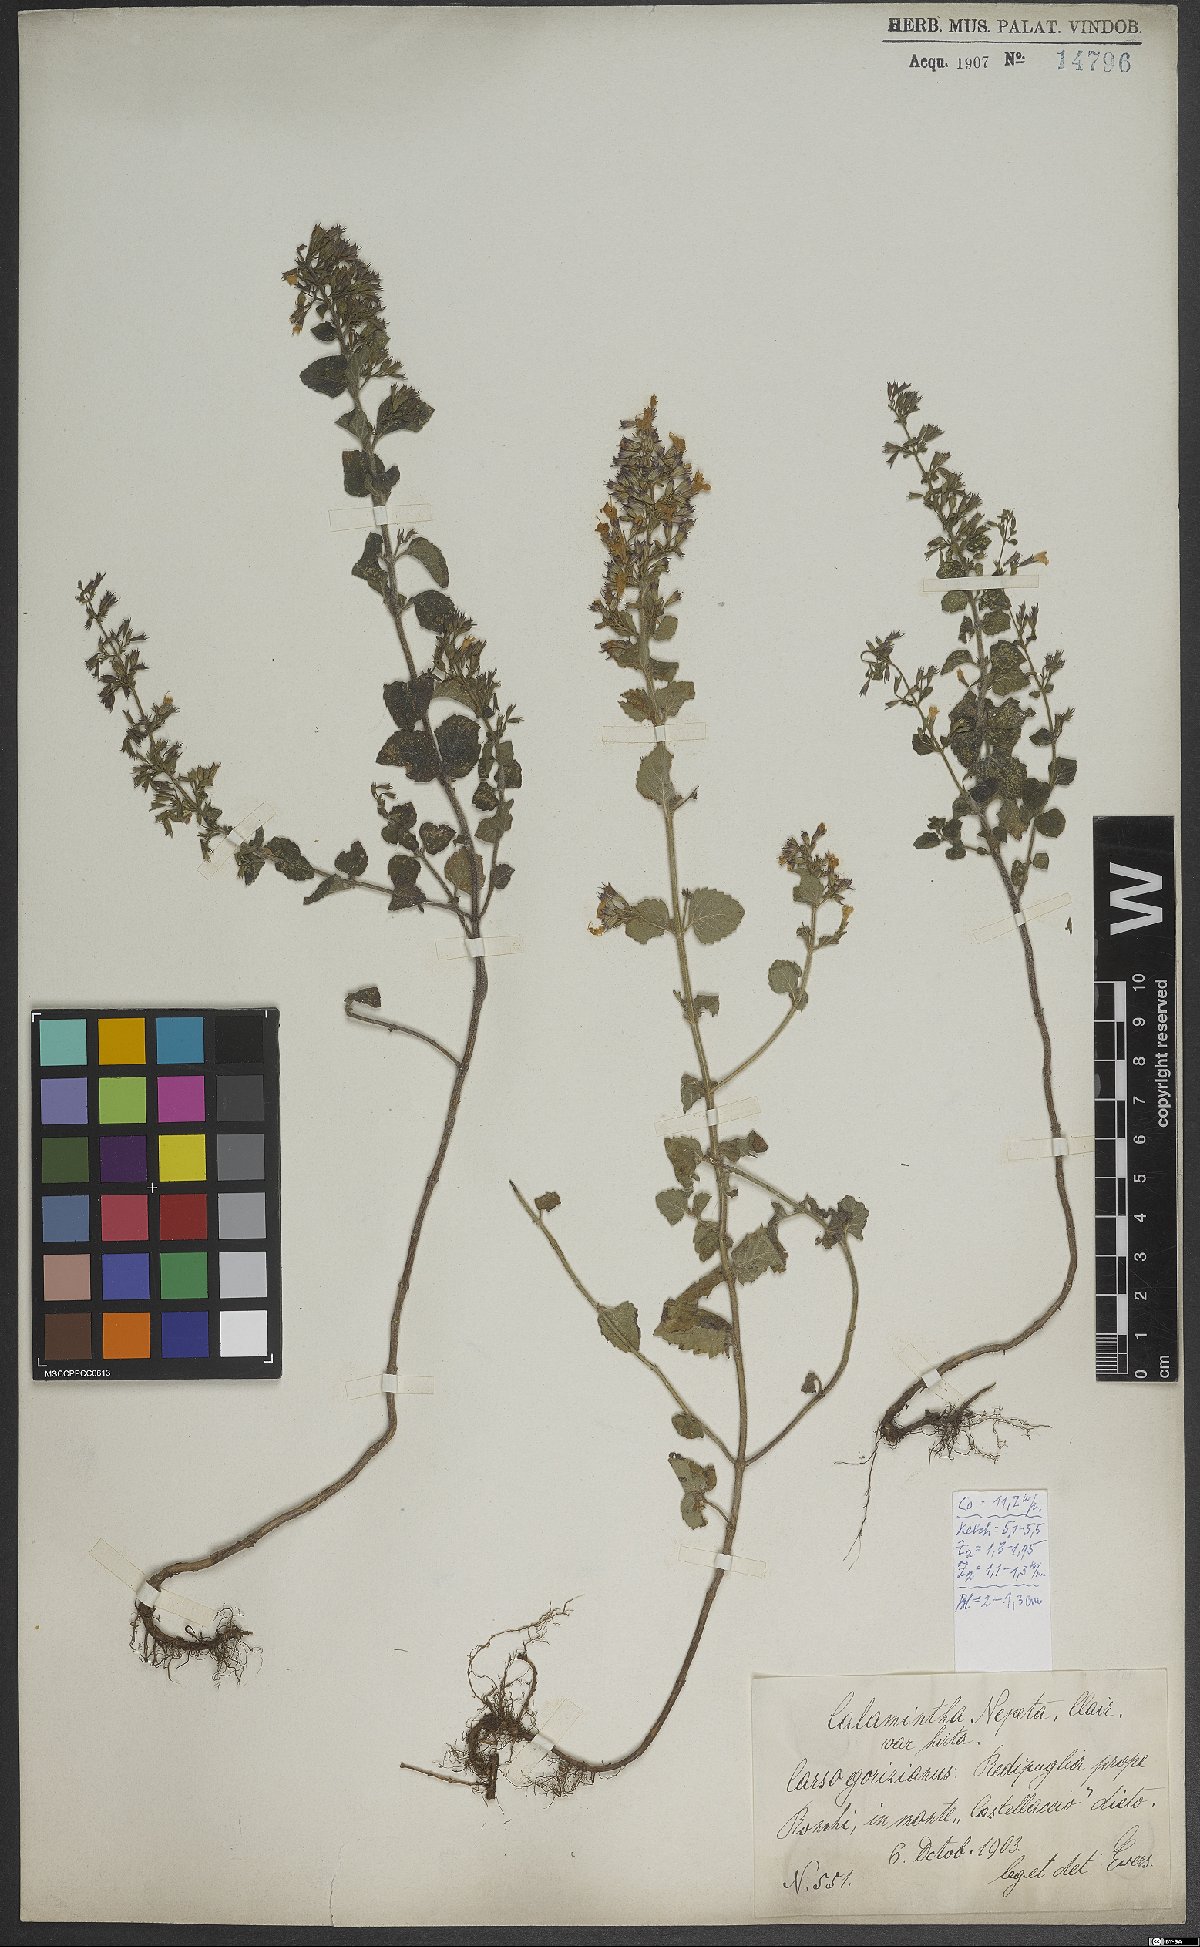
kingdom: Plantae
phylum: Tracheophyta
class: Magnoliopsida
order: Lamiales
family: Lamiaceae
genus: Clinopodium
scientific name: Clinopodium nepeta
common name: Lesser calamint
